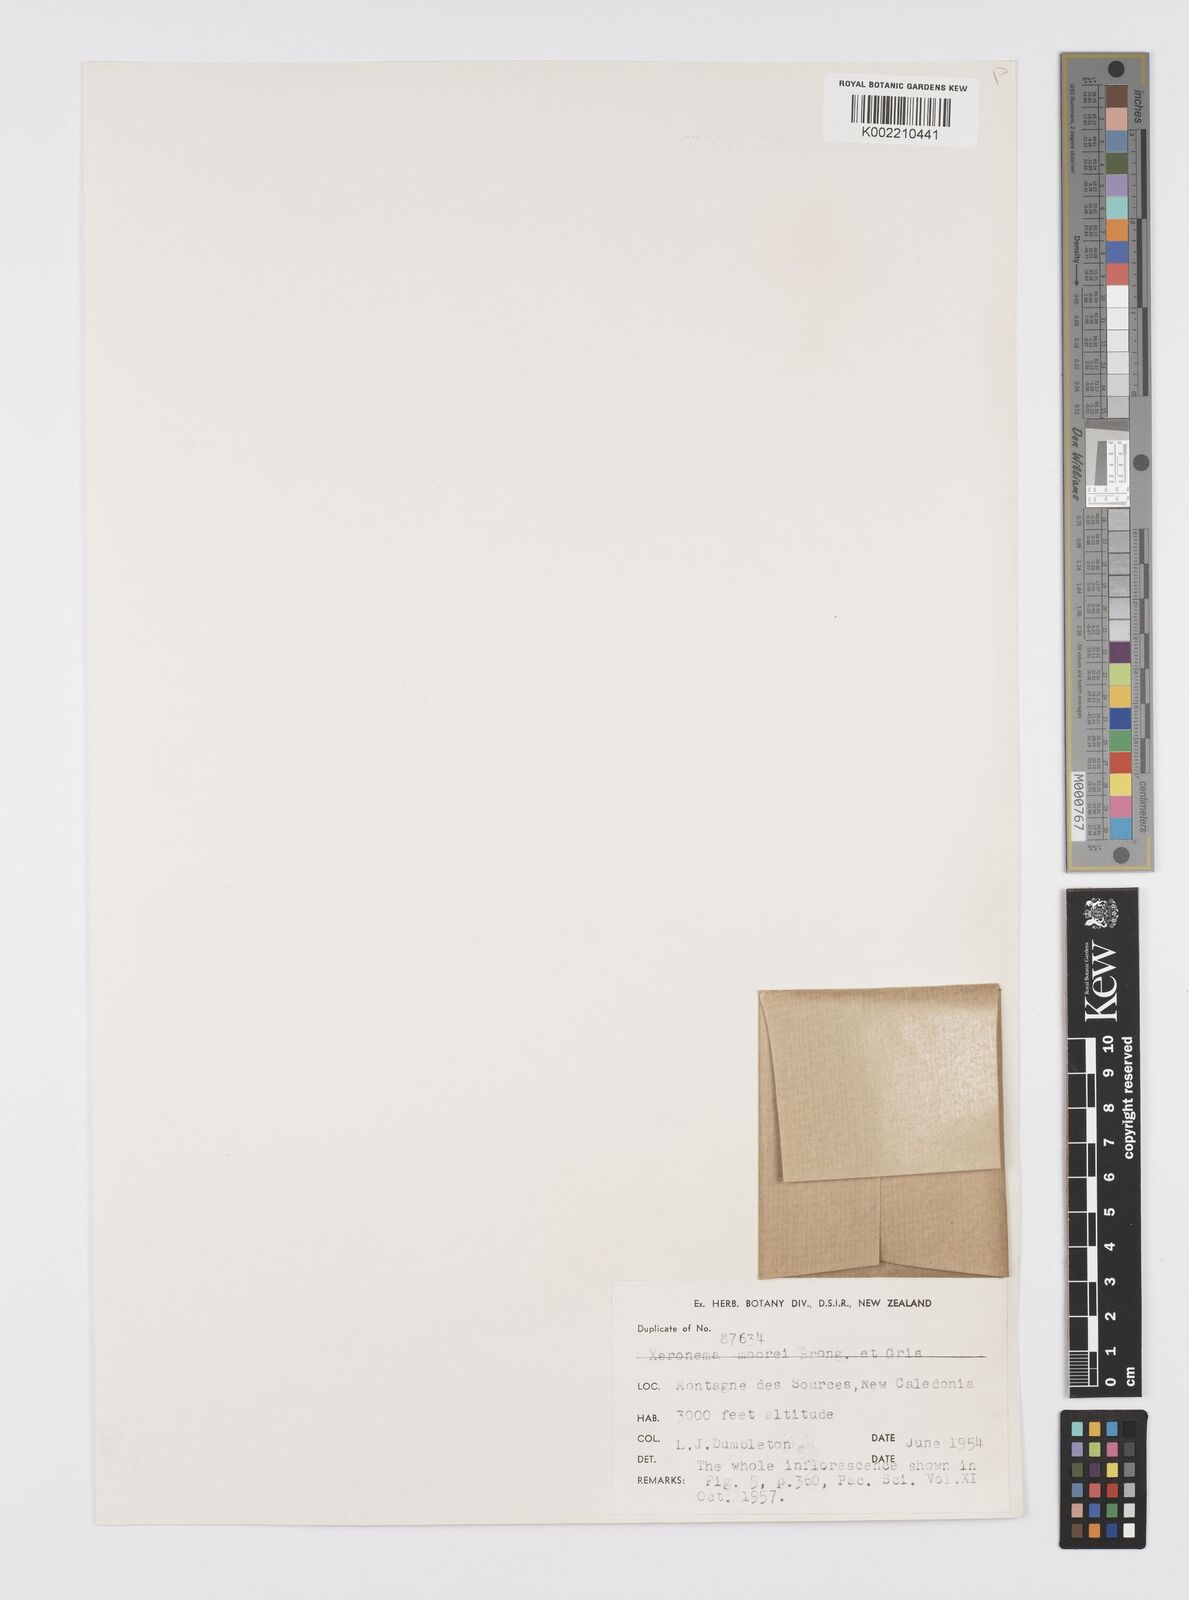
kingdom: Plantae
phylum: Tracheophyta
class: Liliopsida
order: Asparagales
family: Xeronemataceae
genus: Xeronema
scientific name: Xeronema moorei
